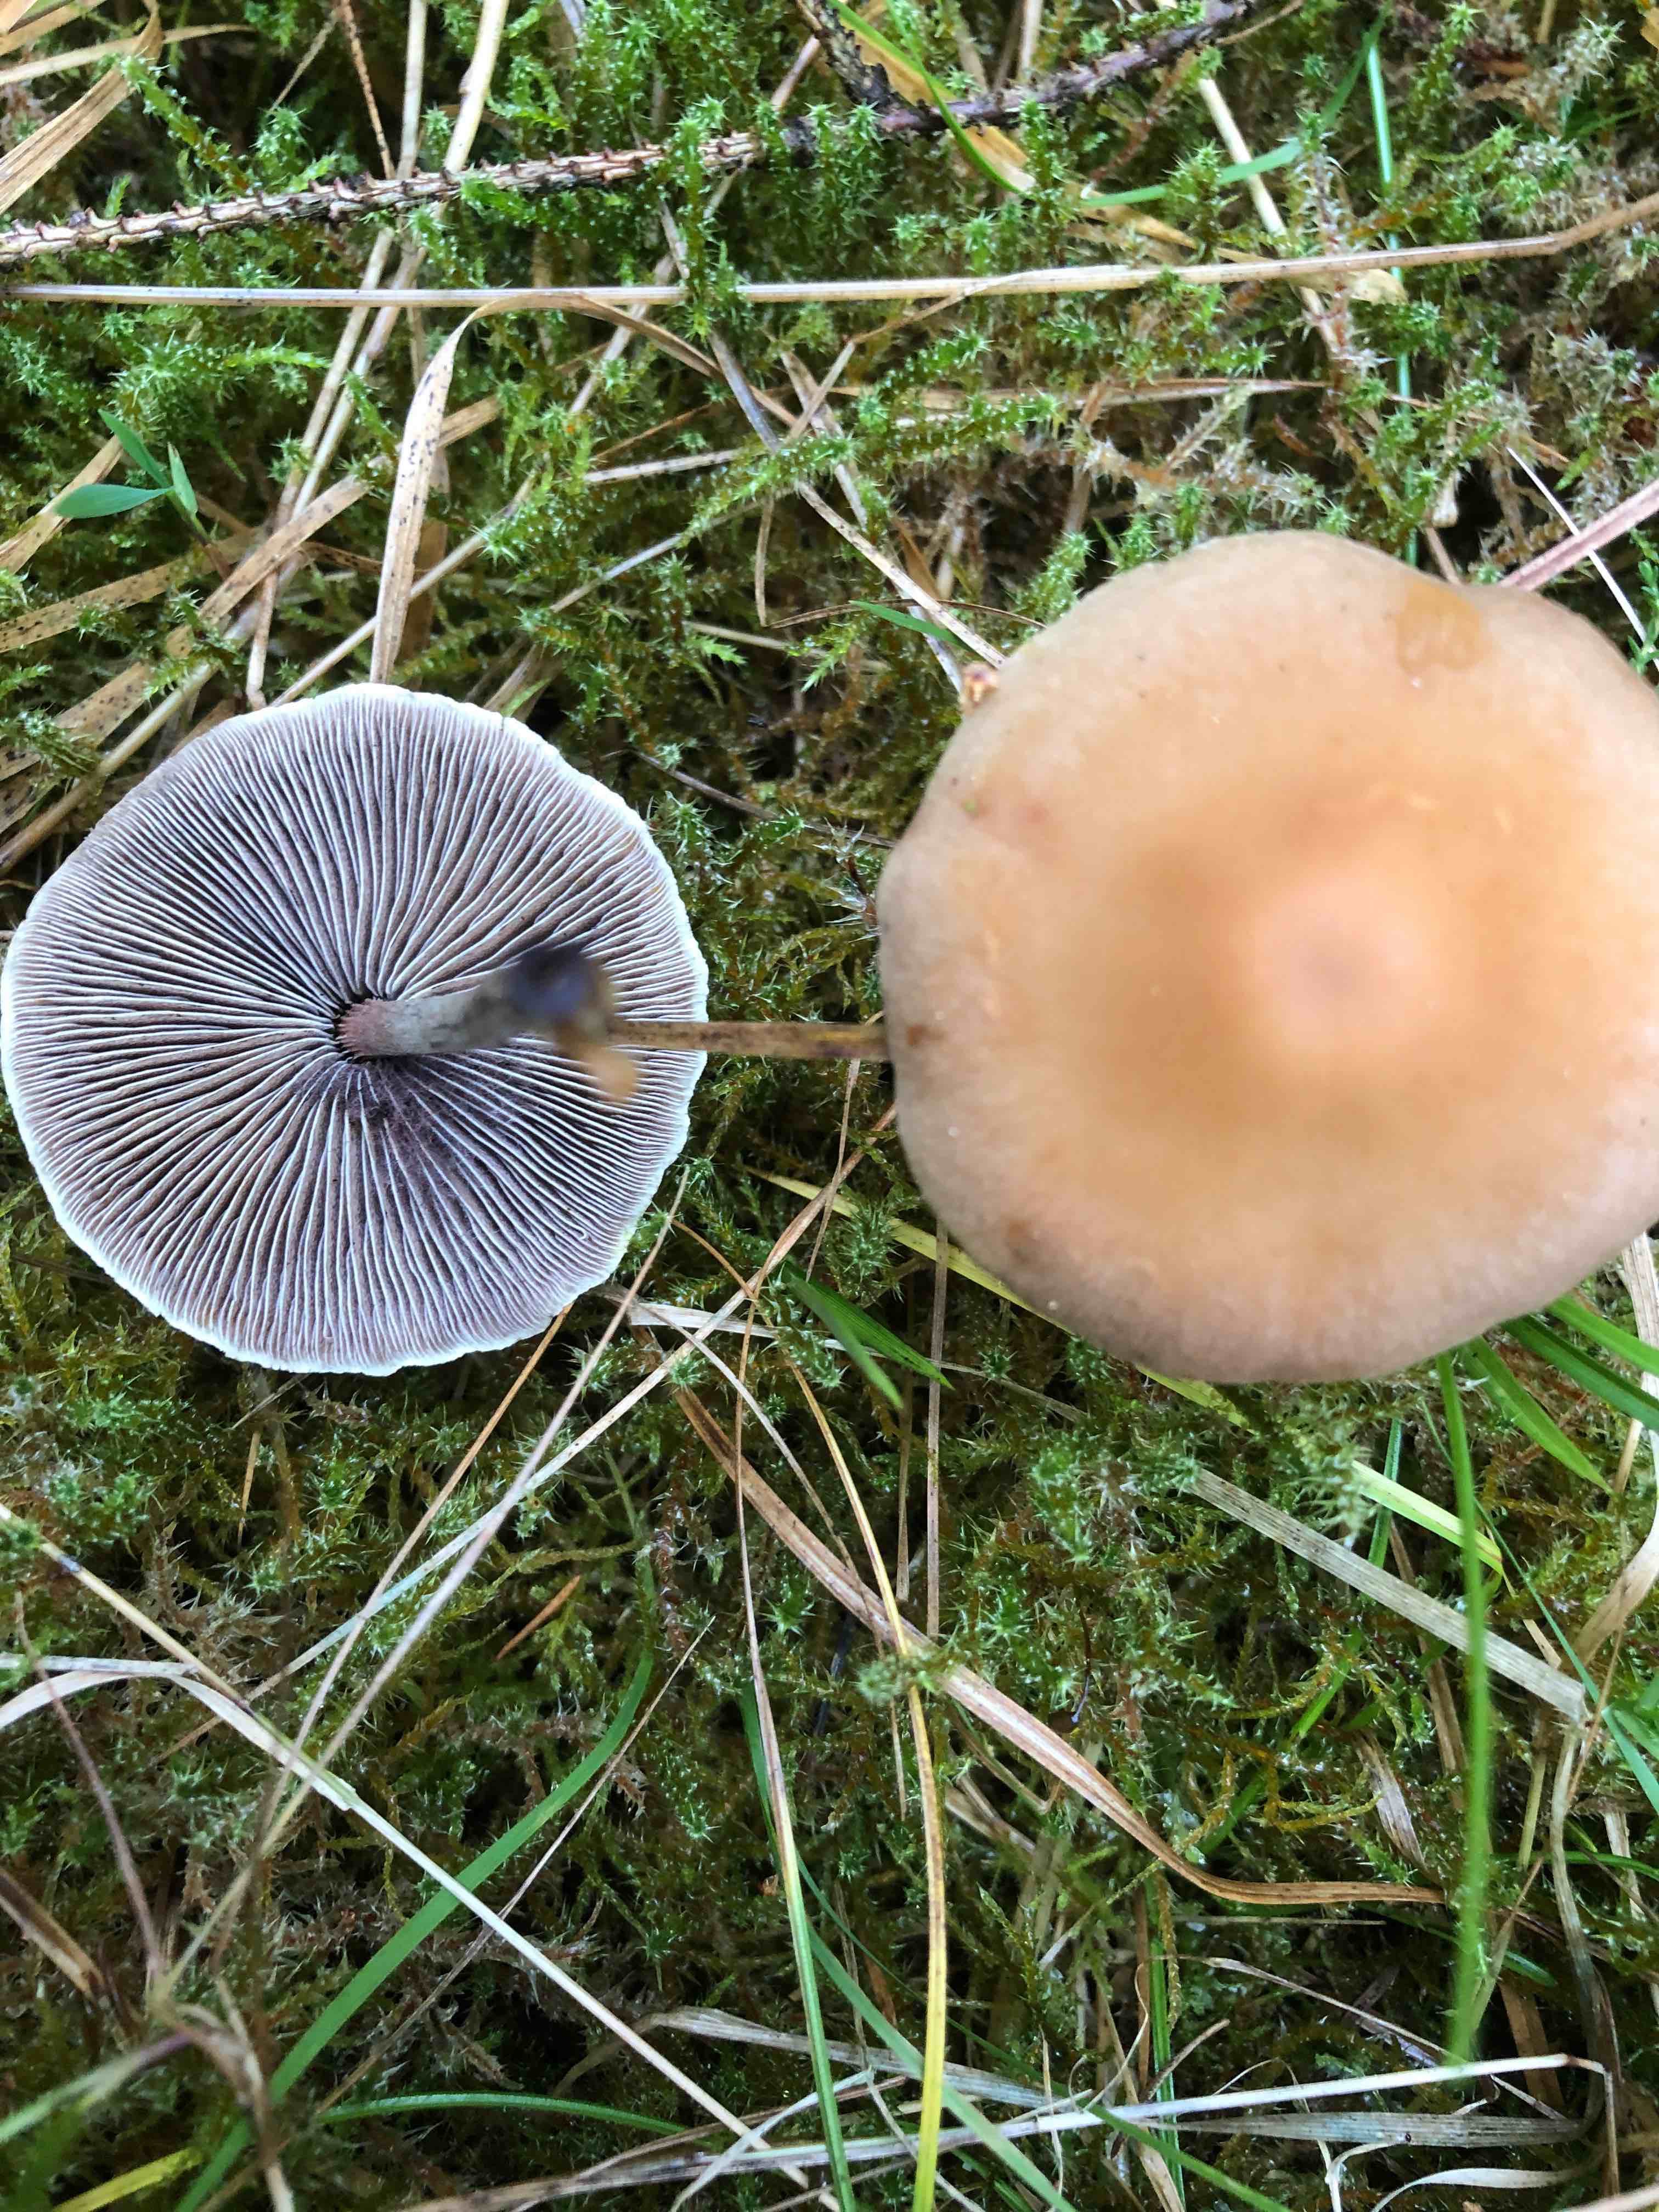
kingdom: Fungi
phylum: Basidiomycota
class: Agaricomycetes
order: Agaricales
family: Strophariaceae
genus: Hypholoma
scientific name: Hypholoma marginatum
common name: enlig svovlhat
